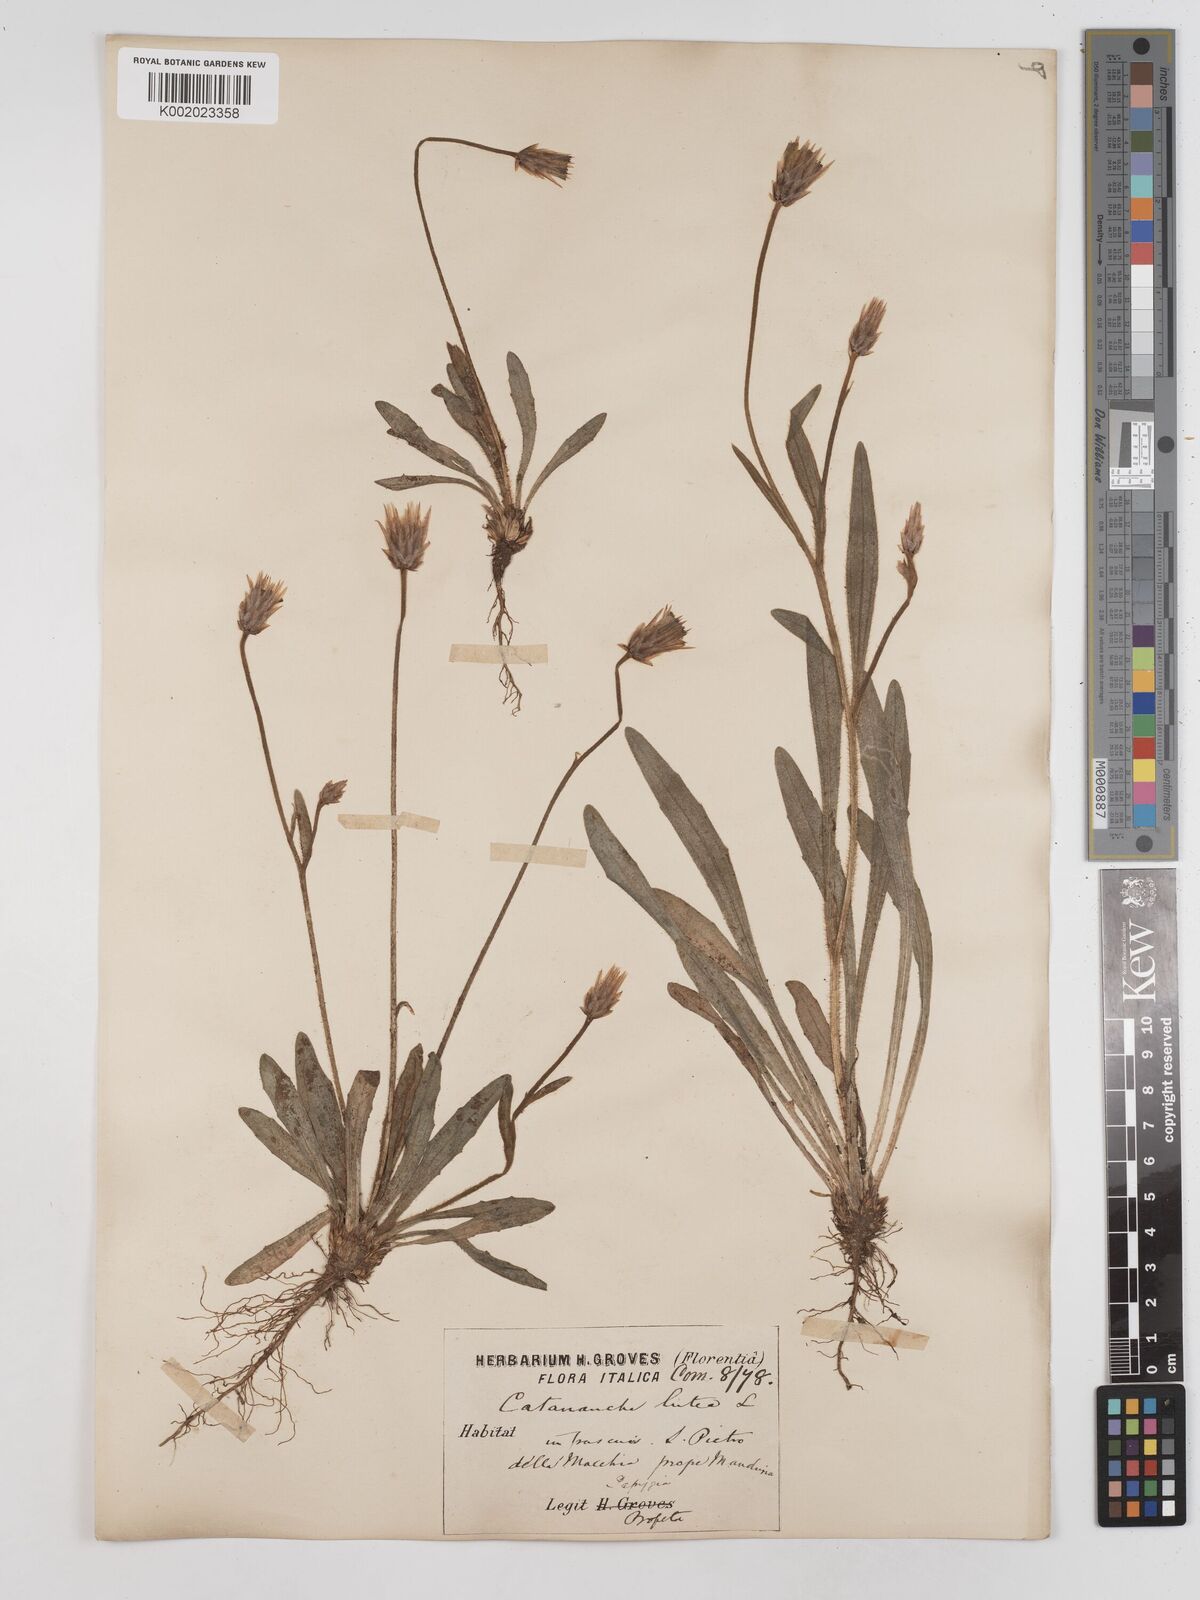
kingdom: Plantae
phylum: Tracheophyta
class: Magnoliopsida
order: Asterales
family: Asteraceae
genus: Catananche
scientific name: Catananche lutea
